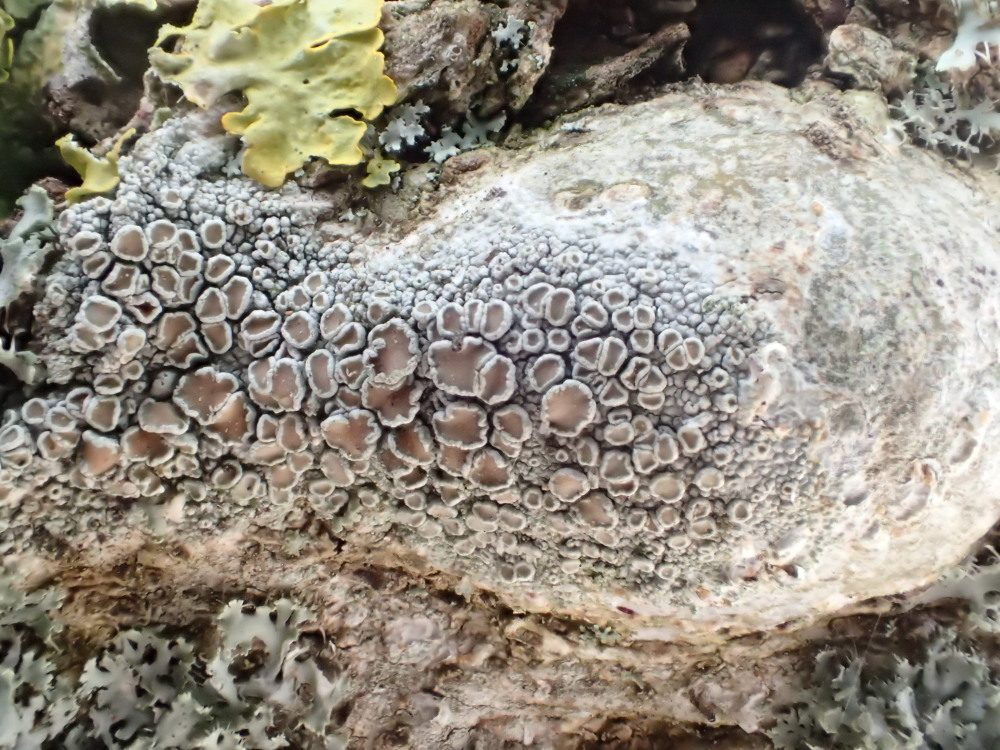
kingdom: Fungi
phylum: Ascomycota
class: Lecanoromycetes
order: Lecanorales
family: Lecanoraceae
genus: Lecanora
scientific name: Lecanora chlarotera
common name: brun kantskivelav
